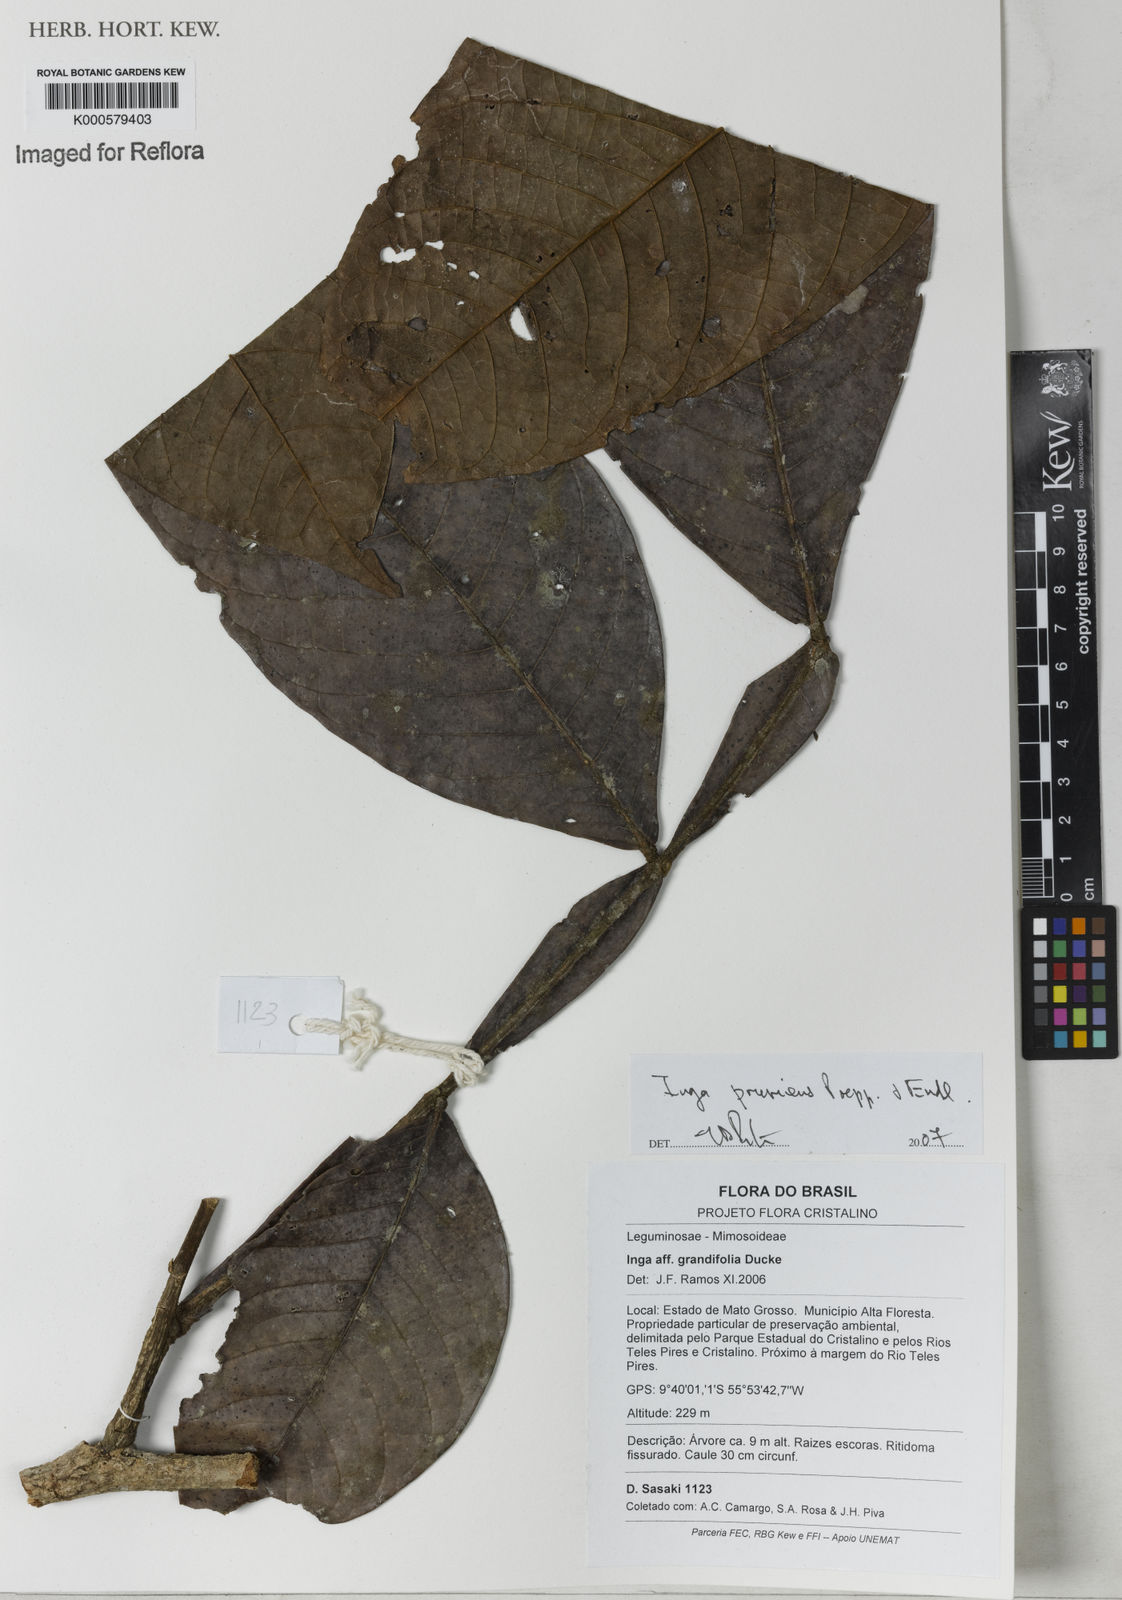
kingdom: Plantae
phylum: Tracheophyta
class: Magnoliopsida
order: Fabales
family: Fabaceae
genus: Inga
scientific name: Inga pruriens
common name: Howler monkey inga
